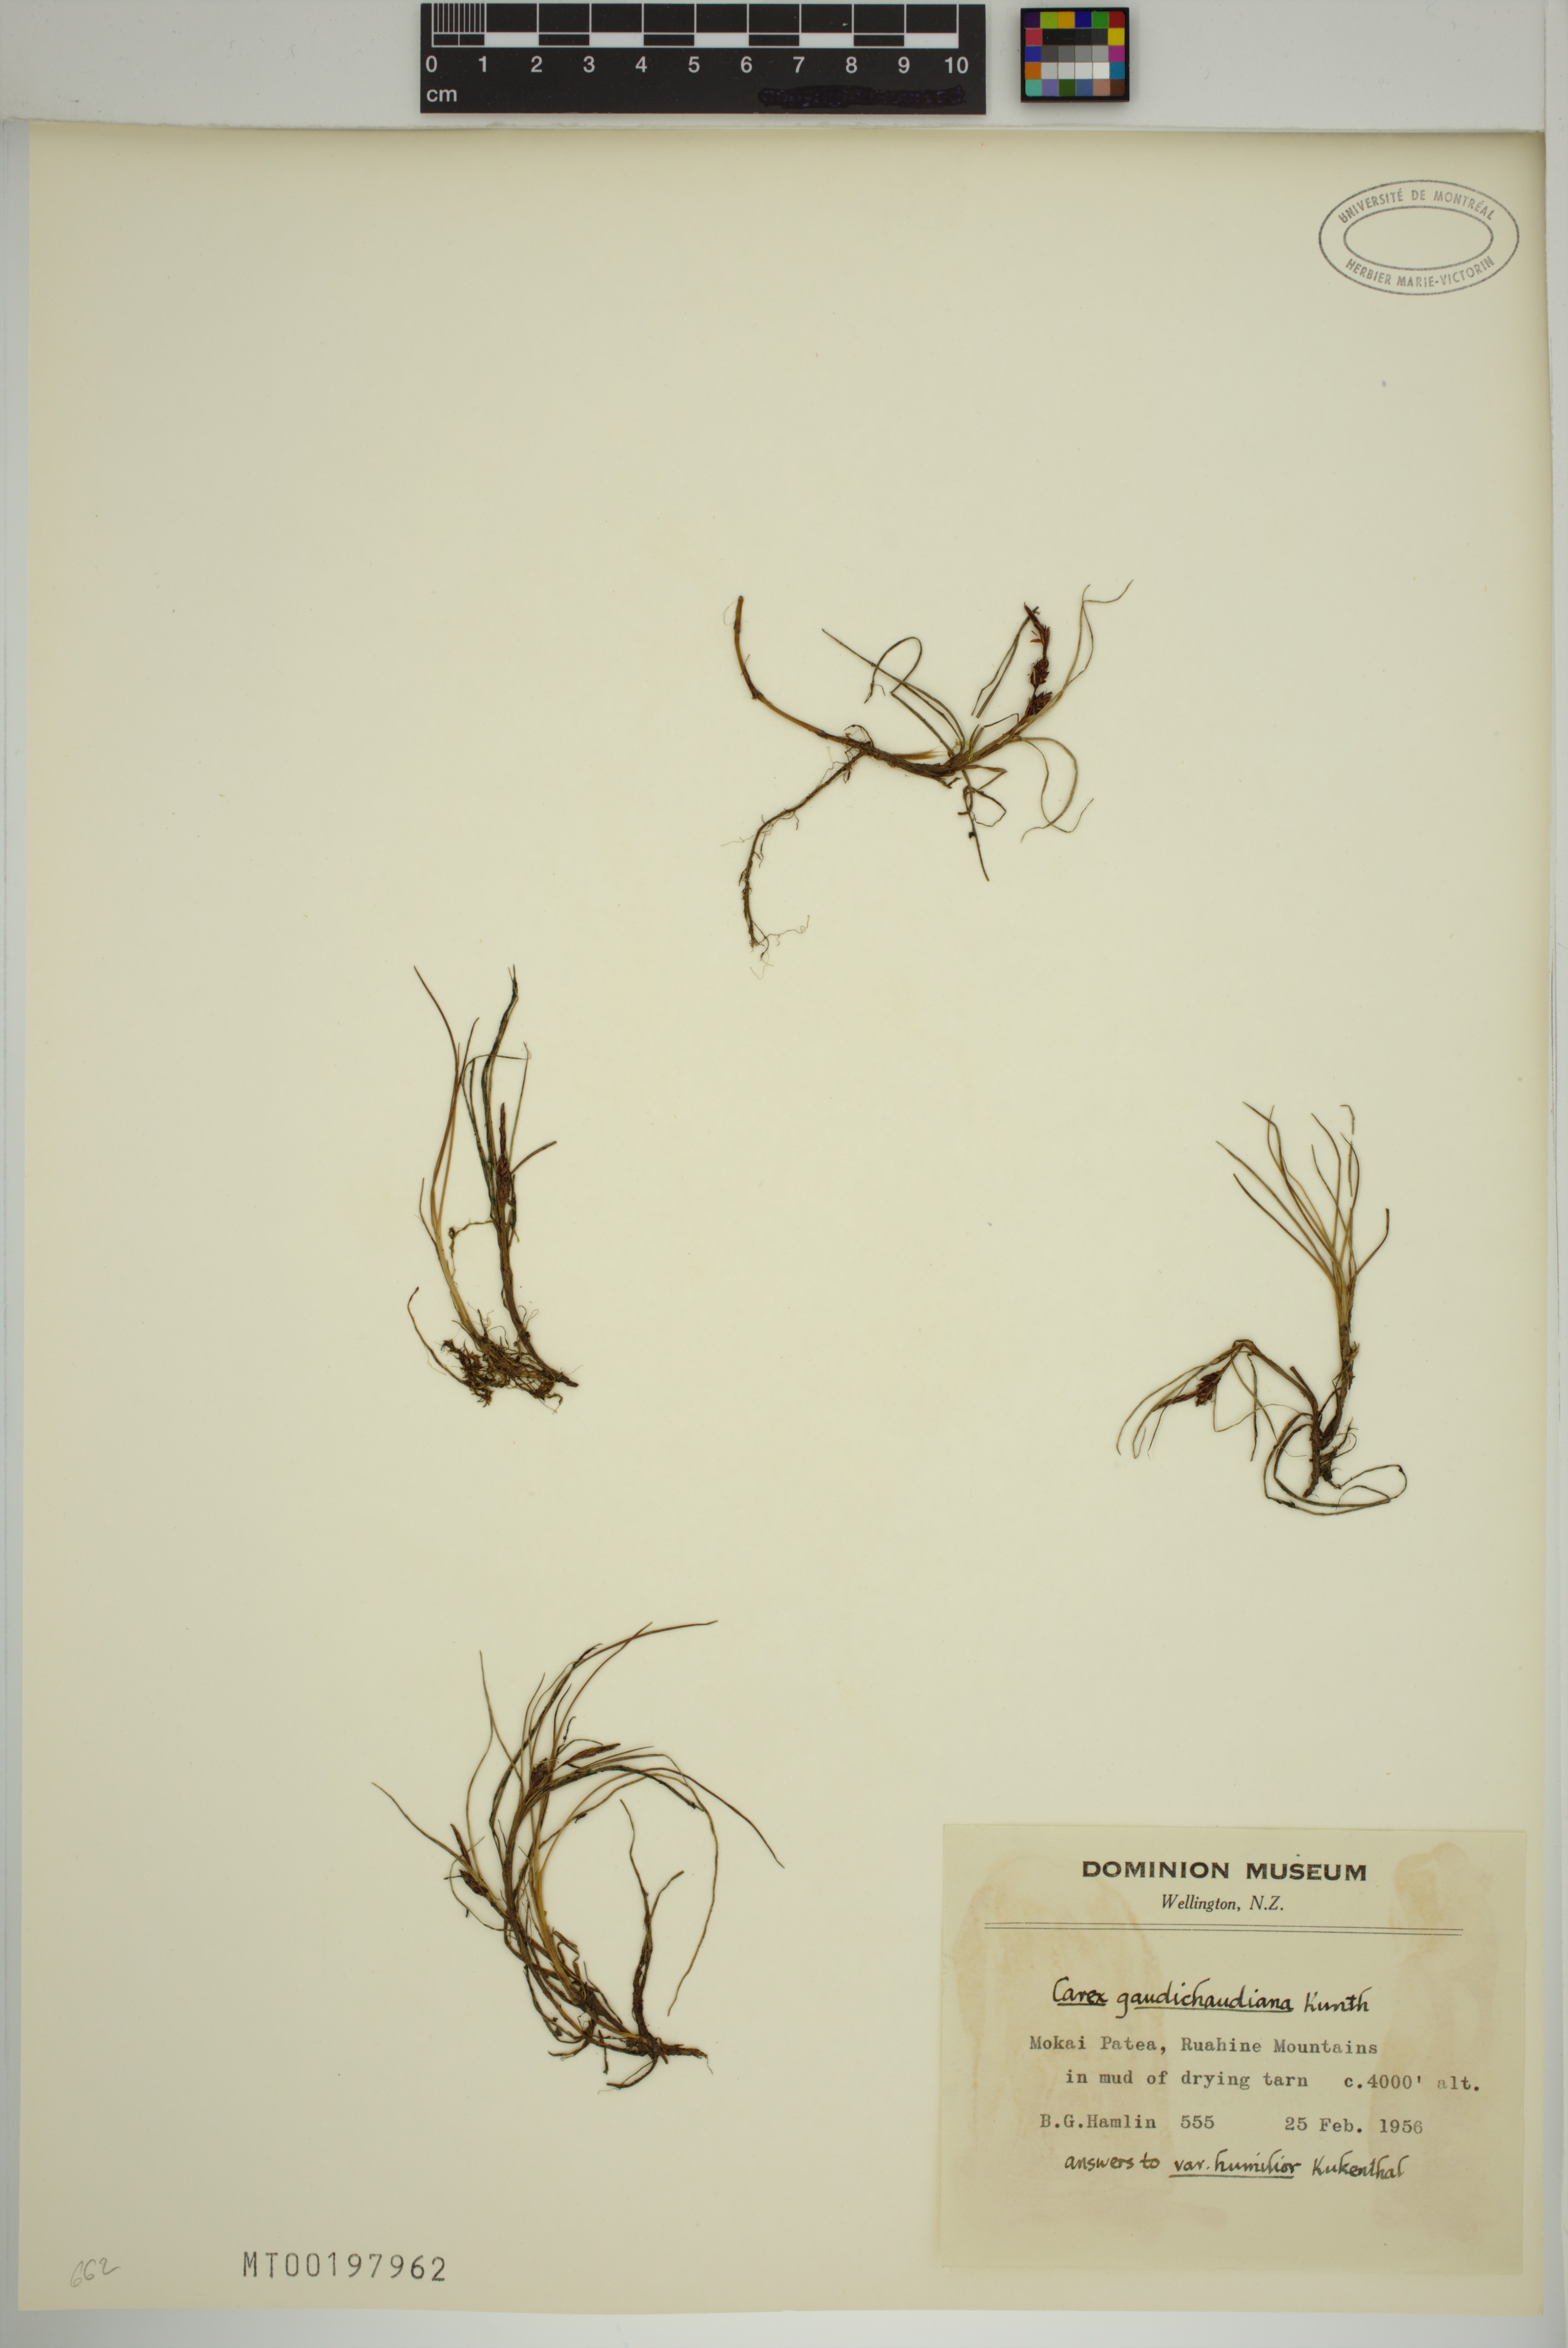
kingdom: Plantae
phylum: Tracheophyta
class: Liliopsida
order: Poales
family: Cyperaceae
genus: Carex
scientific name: Carex gaudichaudiana
